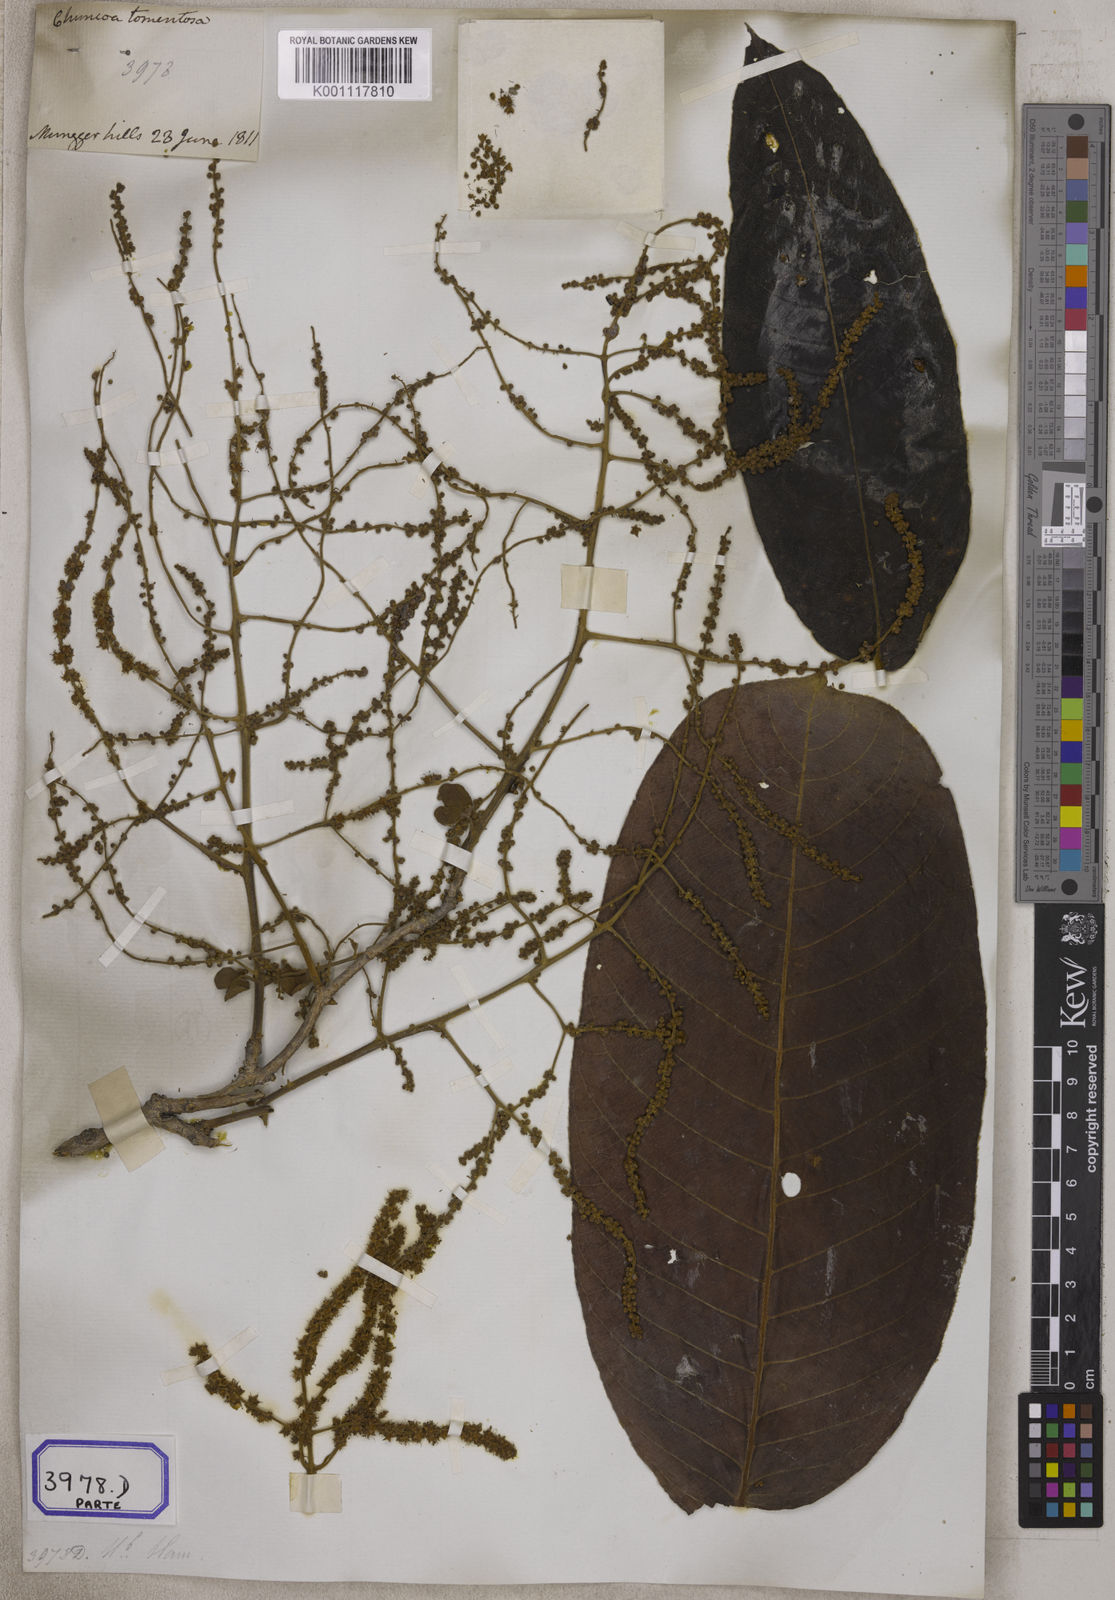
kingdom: Plantae
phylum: Tracheophyta
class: Magnoliopsida
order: Myrtales
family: Combretaceae
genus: Terminalia
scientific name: Terminalia
